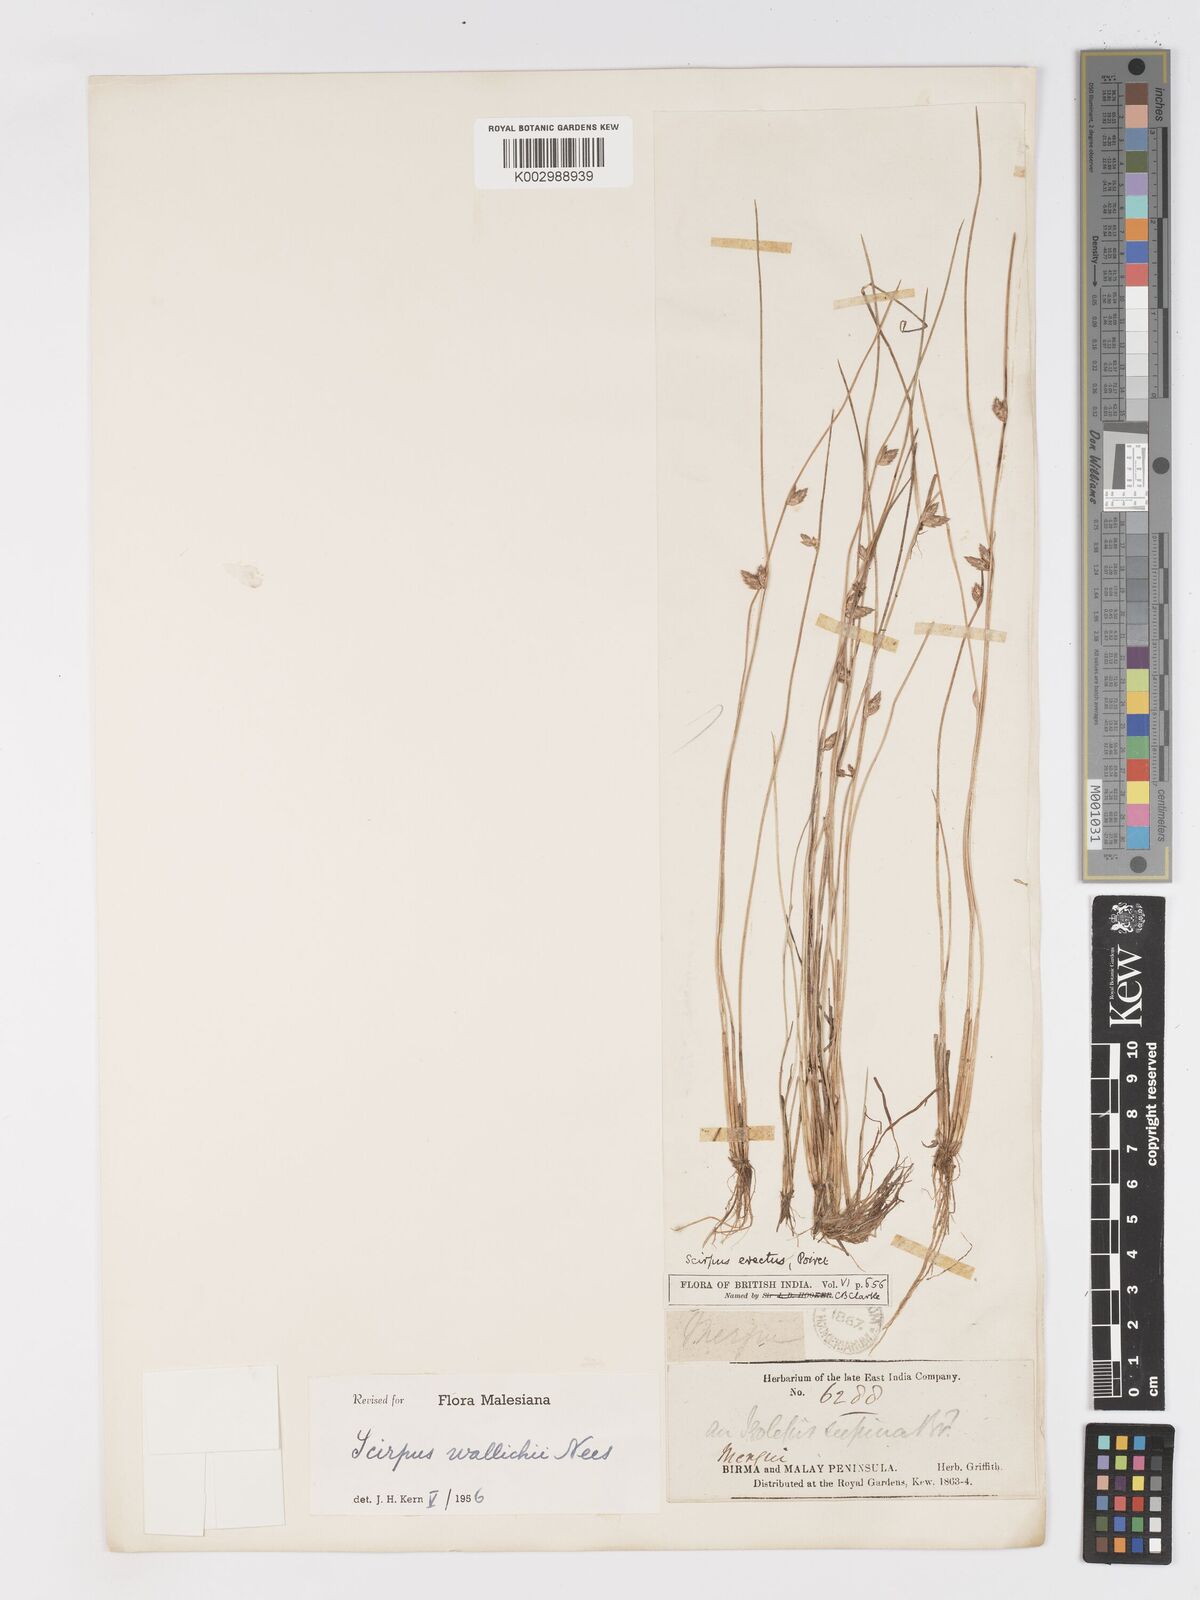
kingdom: Plantae
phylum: Tracheophyta
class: Liliopsida
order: Poales
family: Cyperaceae
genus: Schoenoplectiella
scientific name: Schoenoplectiella wallichii
